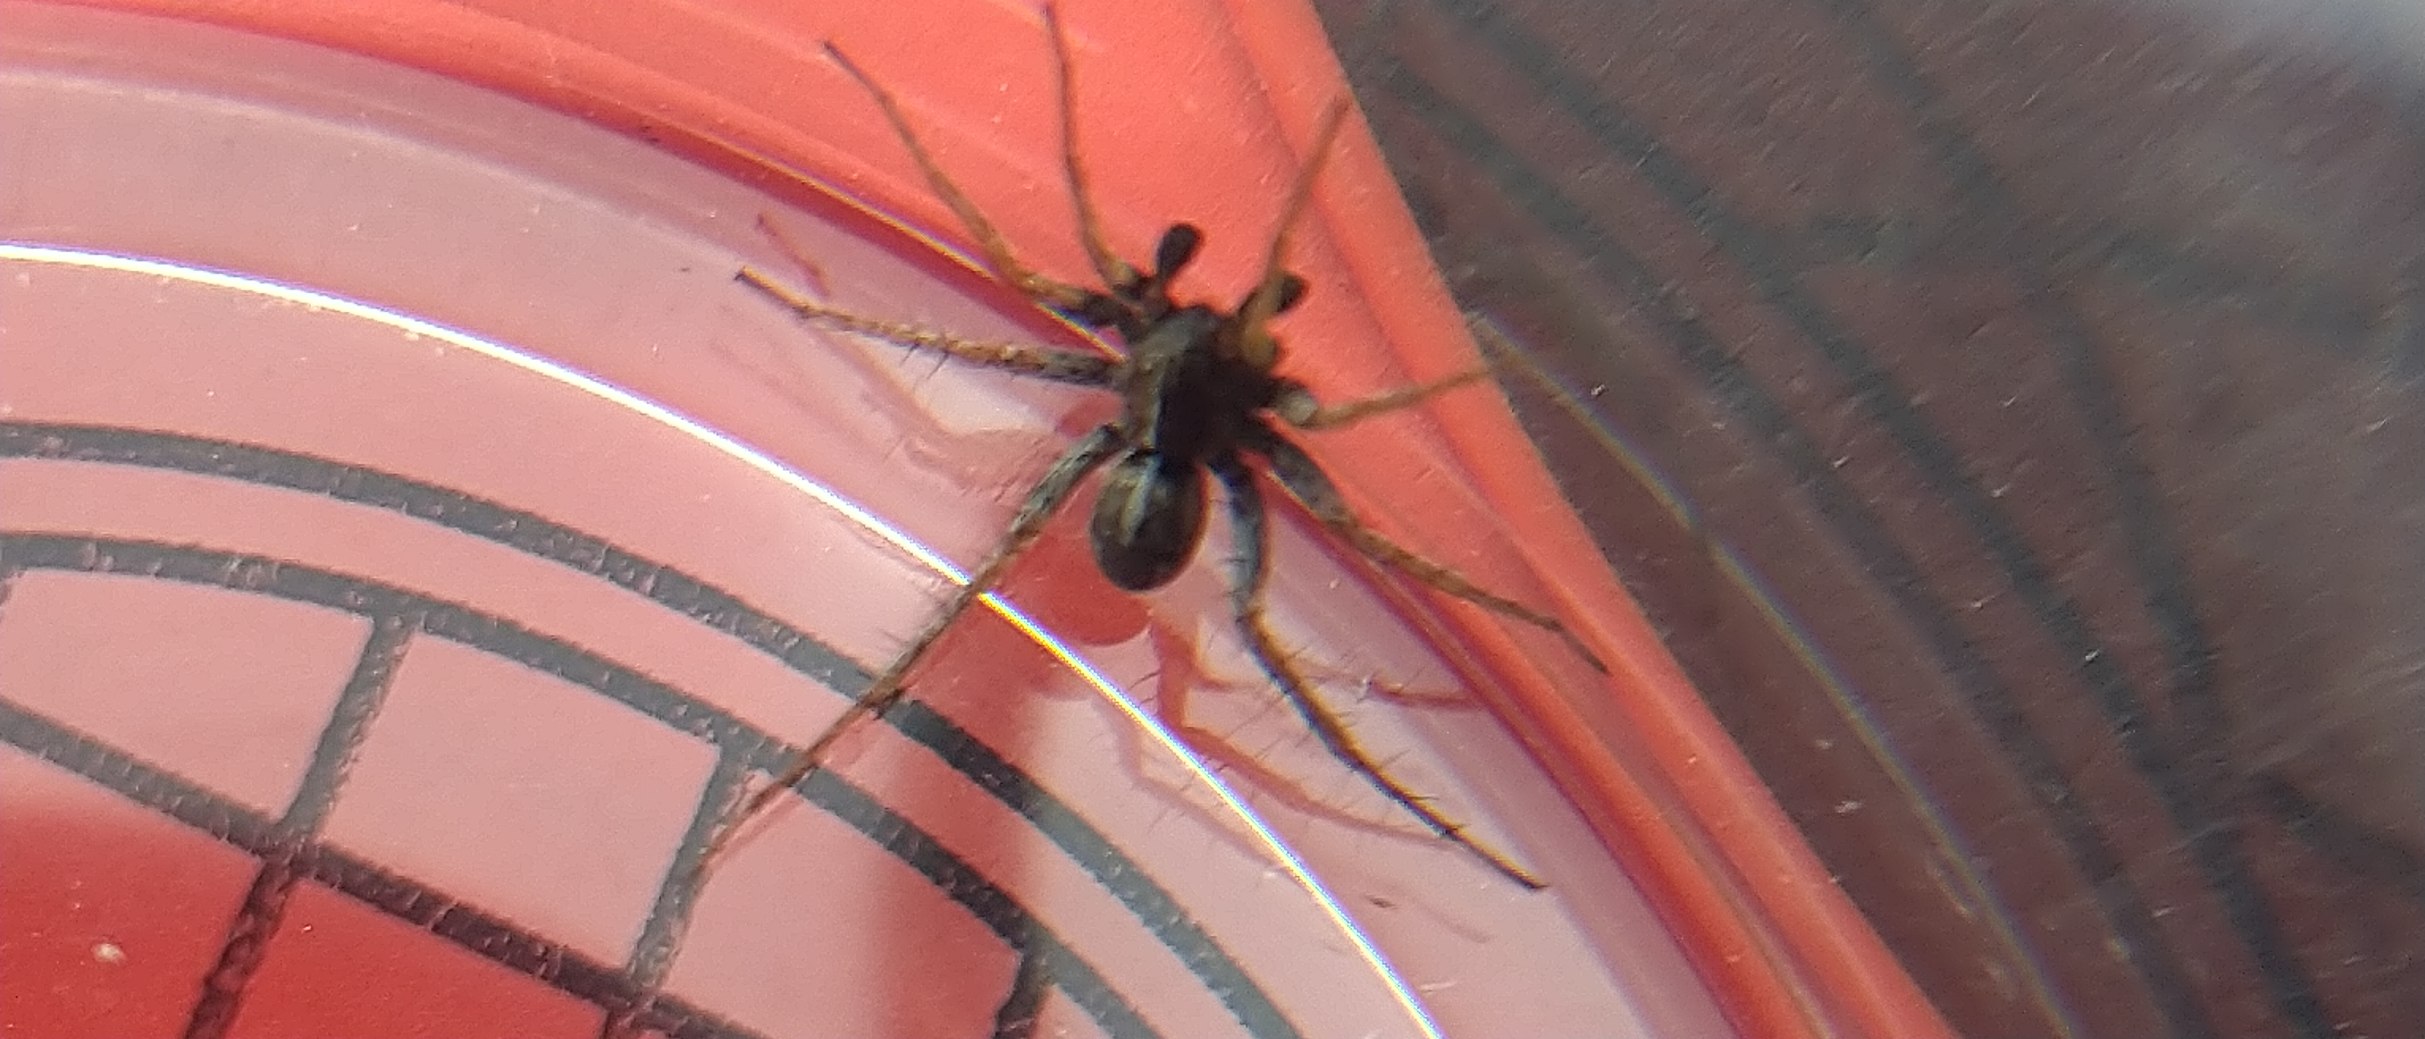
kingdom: Animalia
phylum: Arthropoda
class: Arachnida
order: Araneae
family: Lycosidae
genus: Pardosa
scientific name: Pardosa
